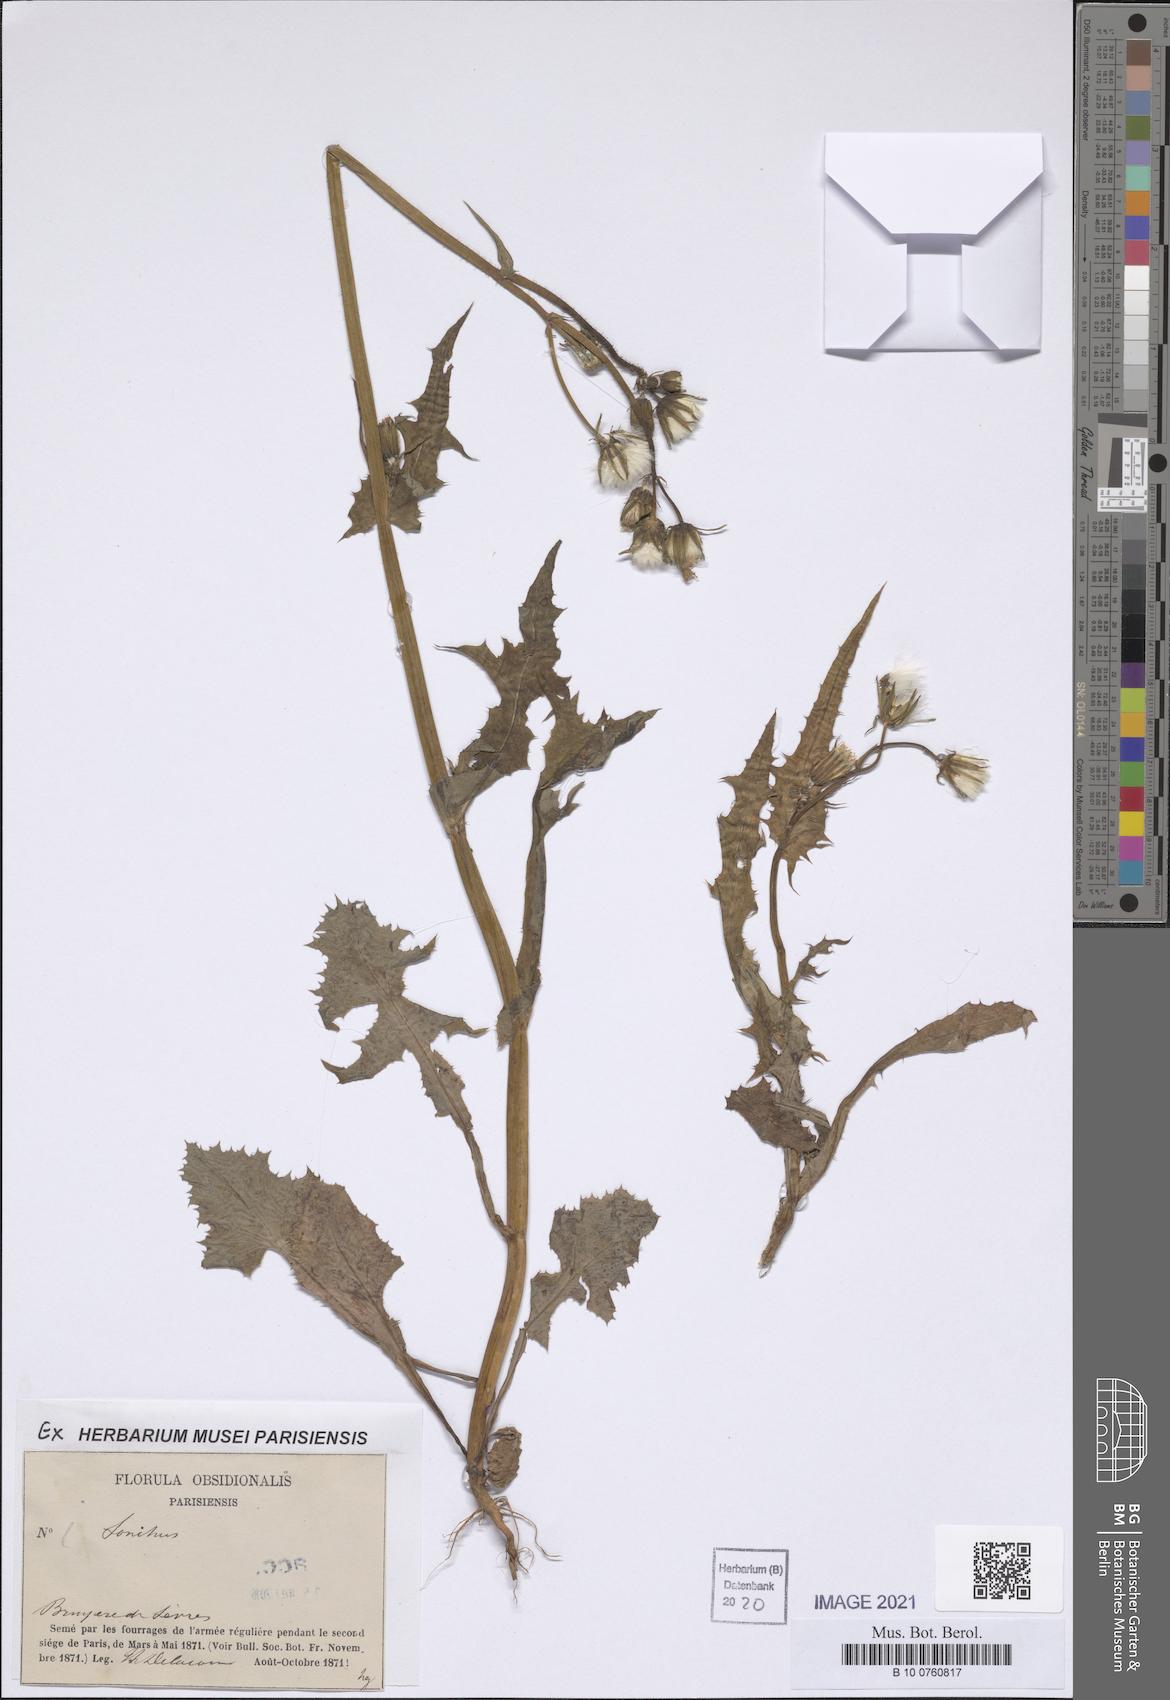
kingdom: Plantae
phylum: Tracheophyta
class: Magnoliopsida
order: Asterales
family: Asteraceae
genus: Sonchus
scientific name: Sonchus
